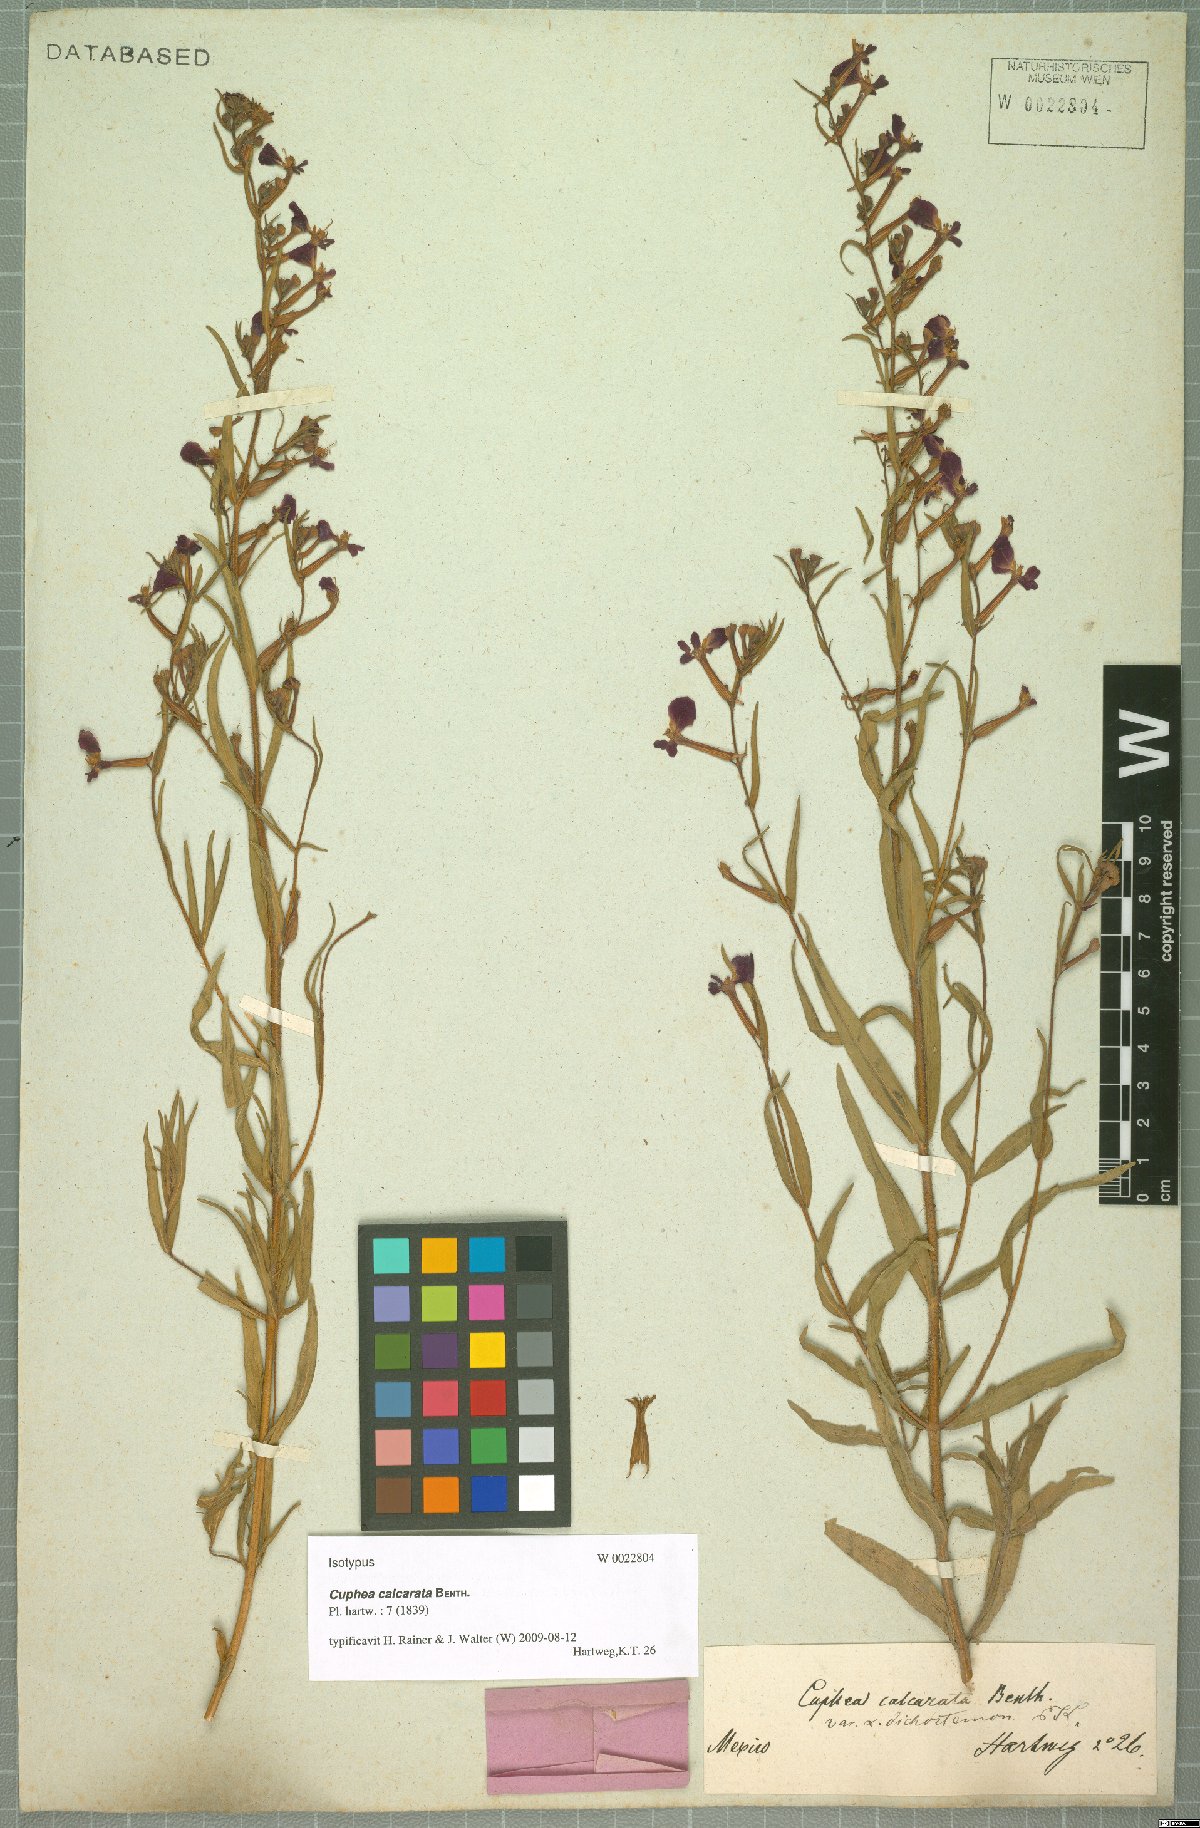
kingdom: Plantae
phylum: Tracheophyta
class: Magnoliopsida
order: Myrtales
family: Lythraceae
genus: Cuphea
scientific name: Cuphea calcarata
